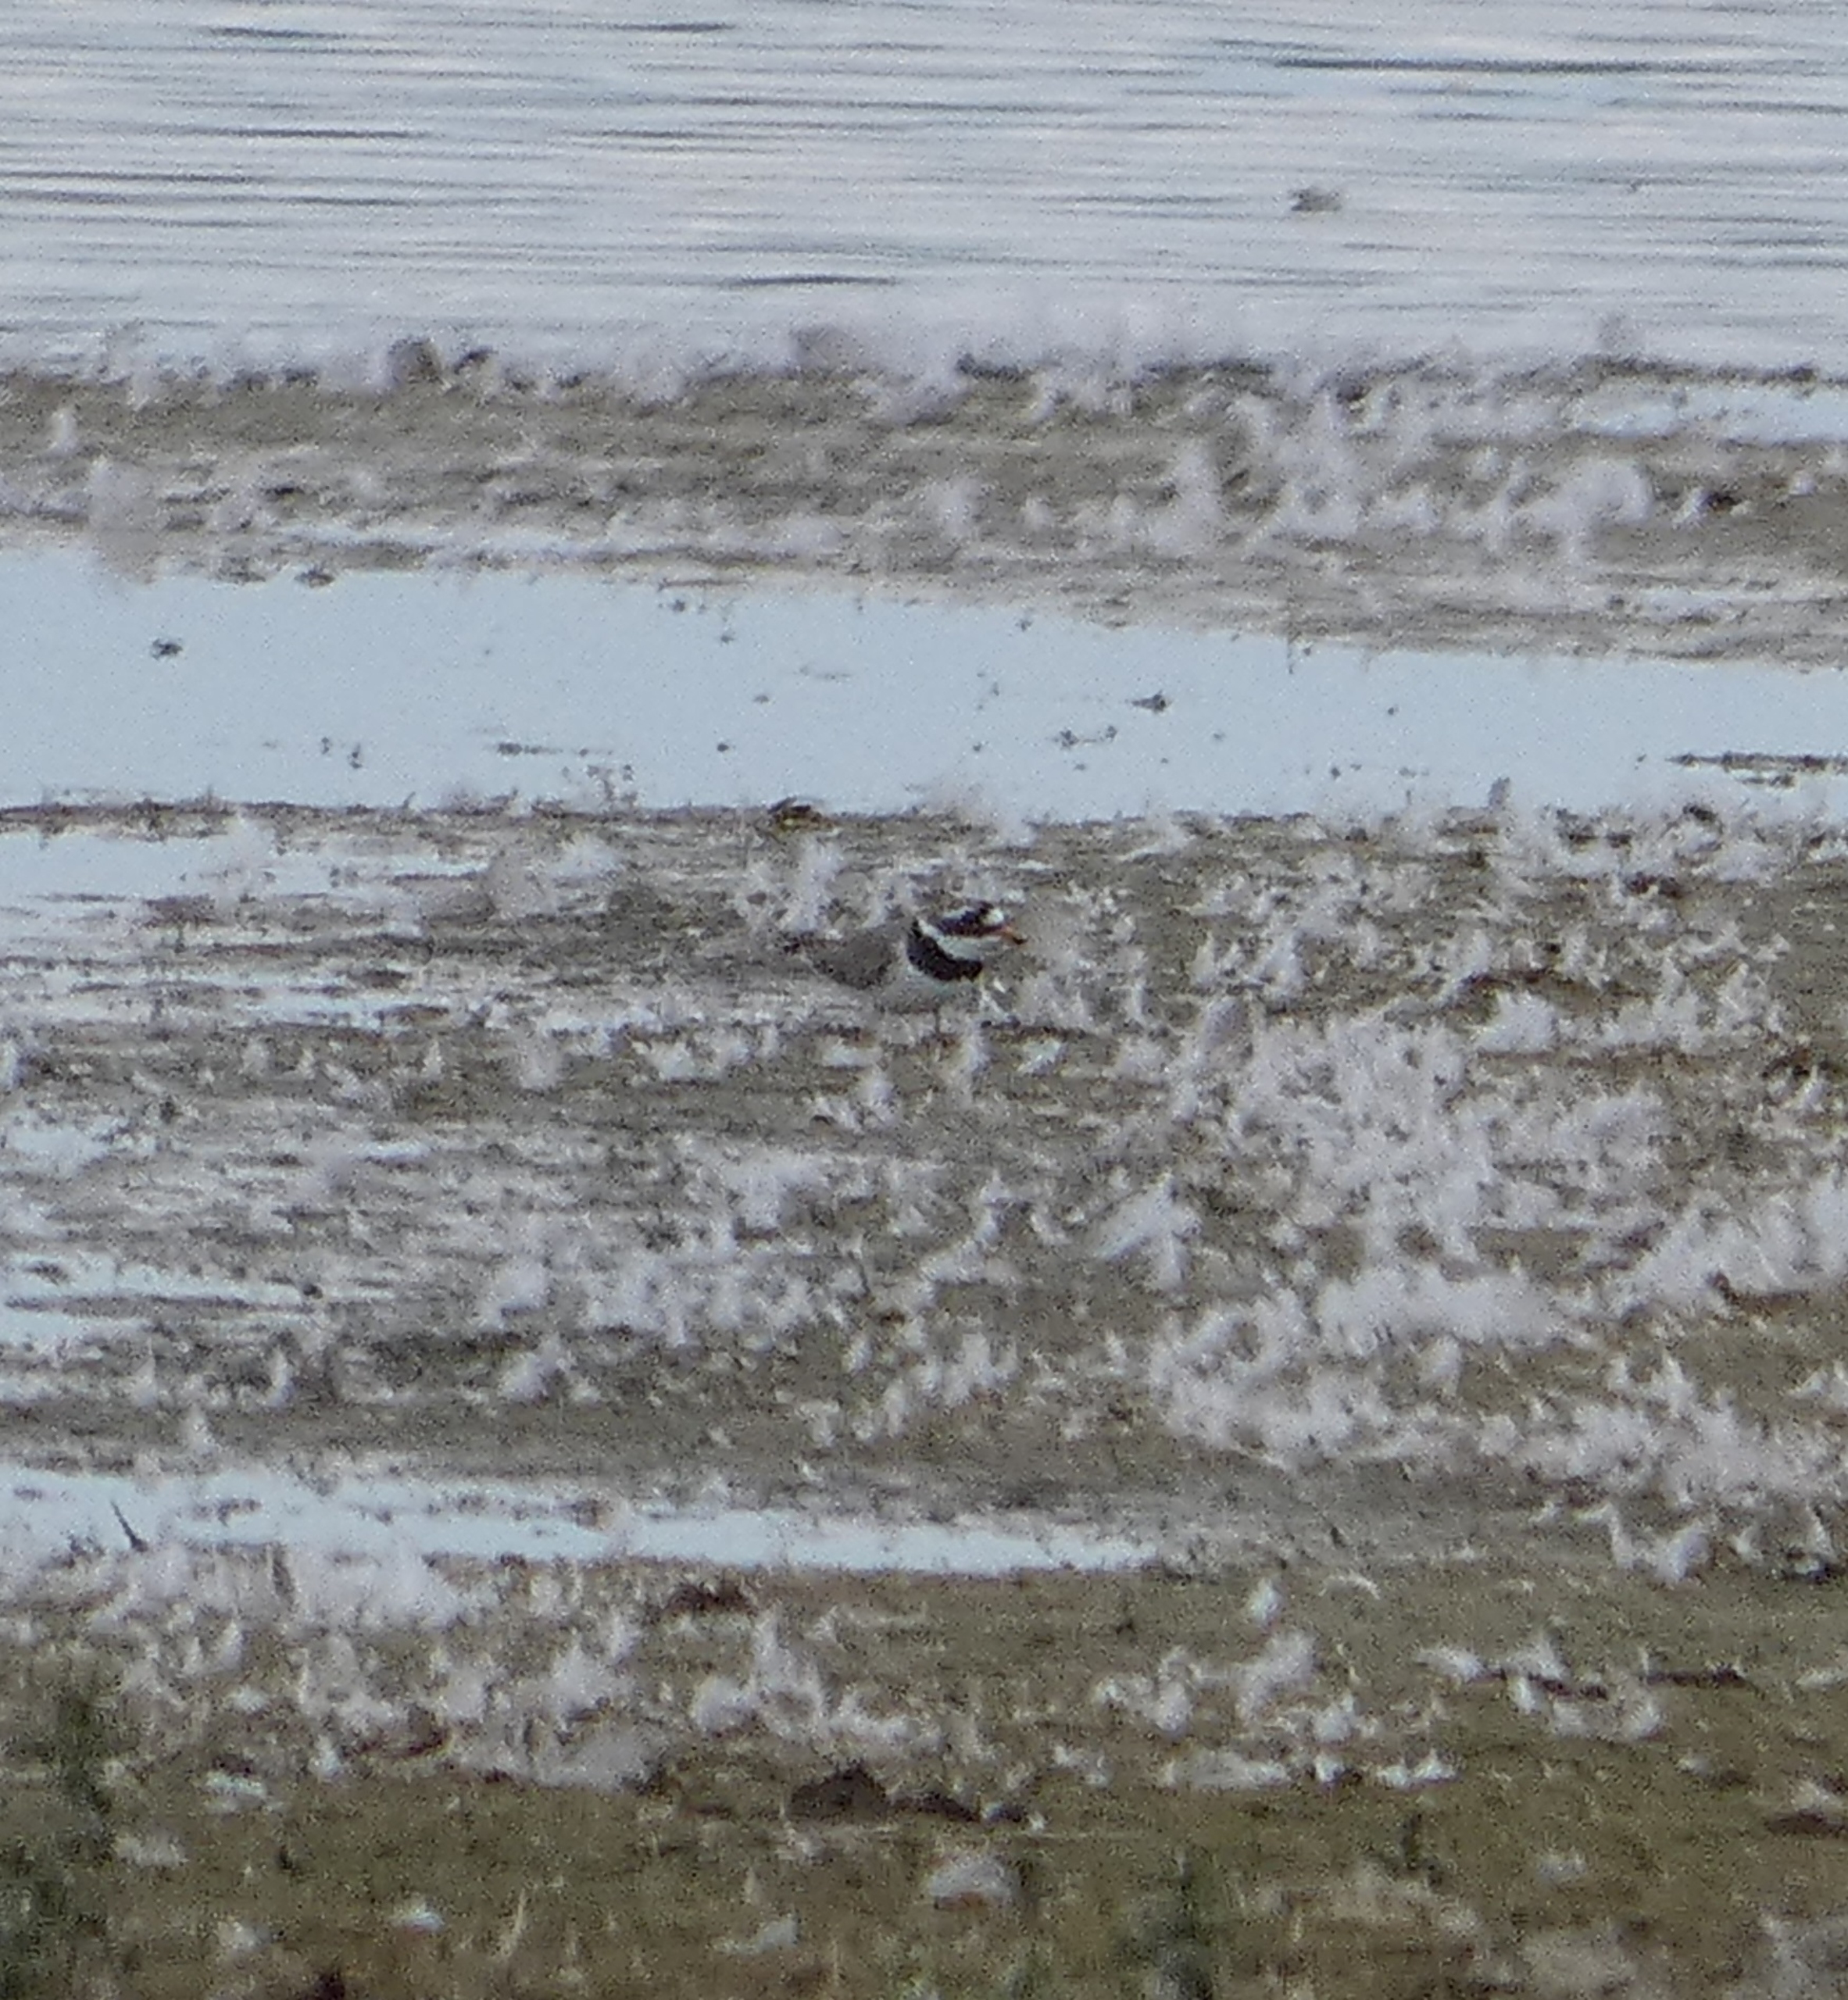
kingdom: Animalia
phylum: Chordata
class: Aves
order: Charadriiformes
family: Charadriidae
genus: Charadrius
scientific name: Charadrius hiaticula
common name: Stor præstekrave
